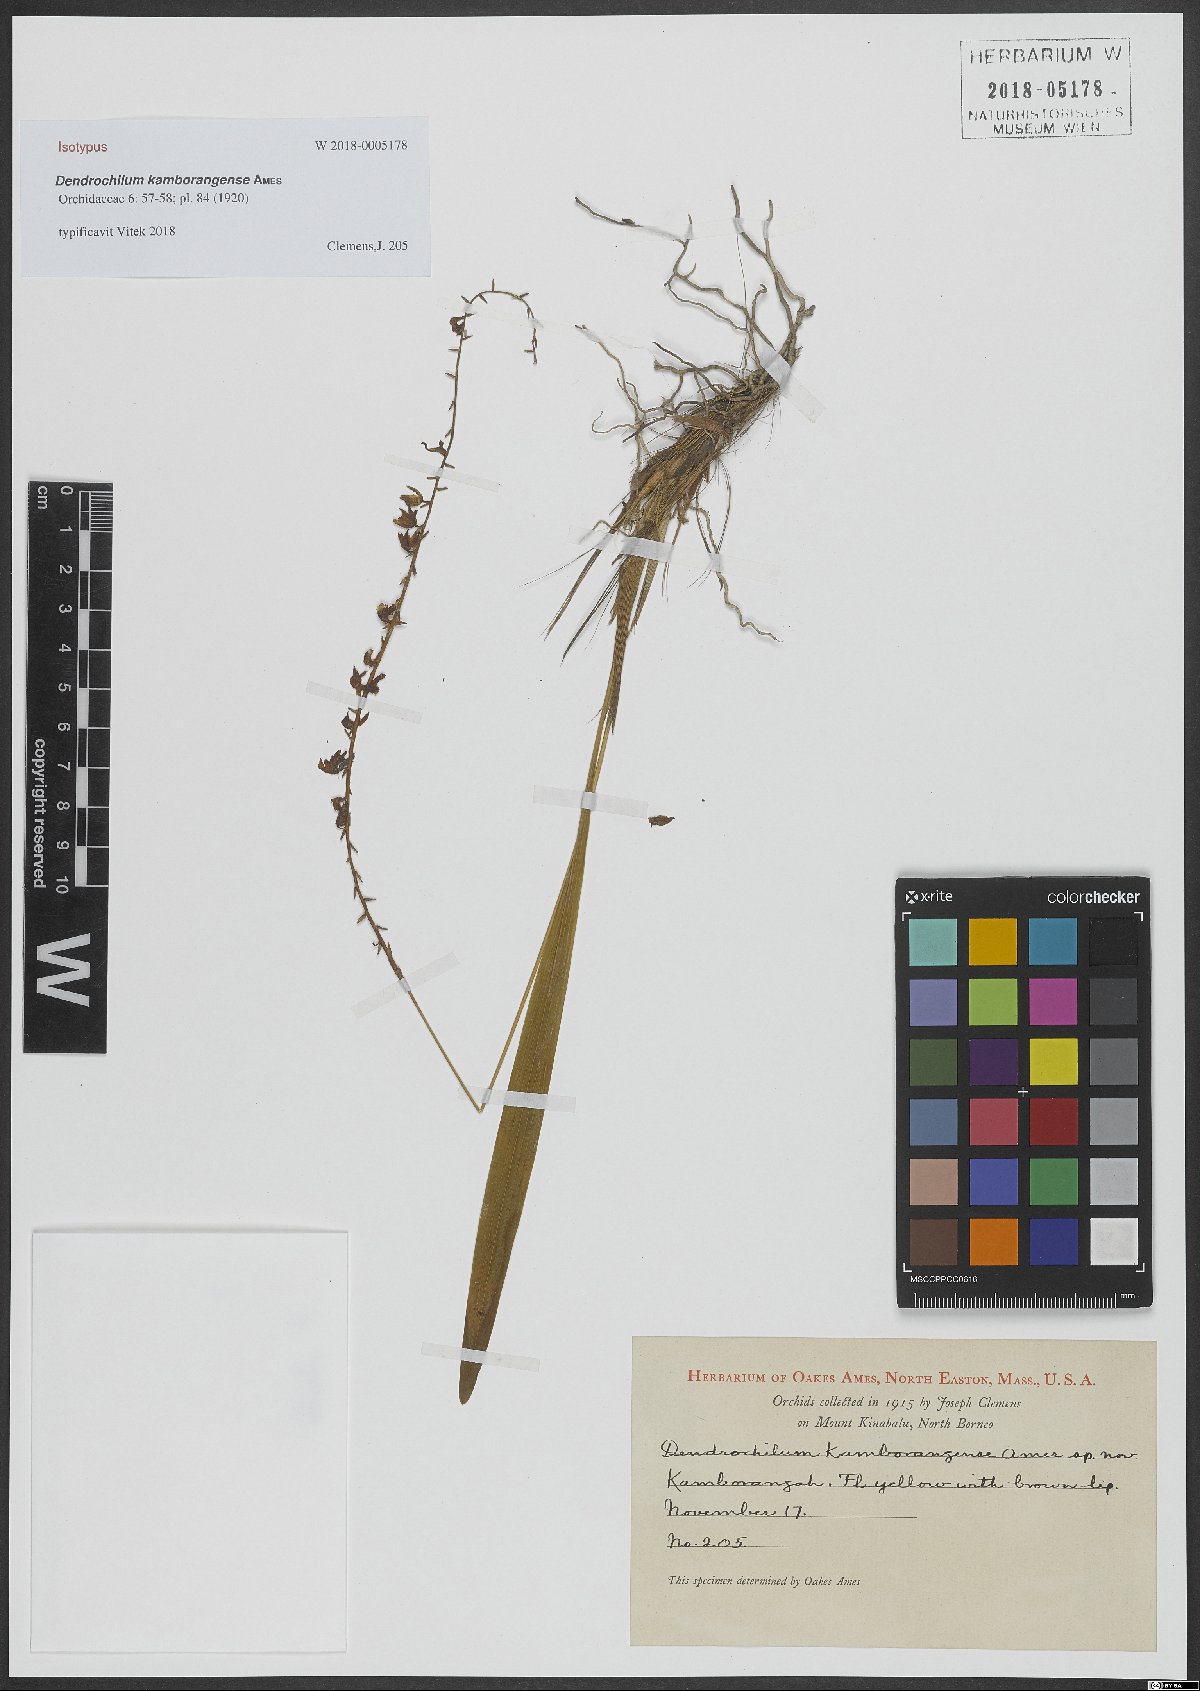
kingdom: Plantae
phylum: Tracheophyta
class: Liliopsida
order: Asparagales
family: Orchidaceae
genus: Coelogyne
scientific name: Coelogyne kamborangensis
